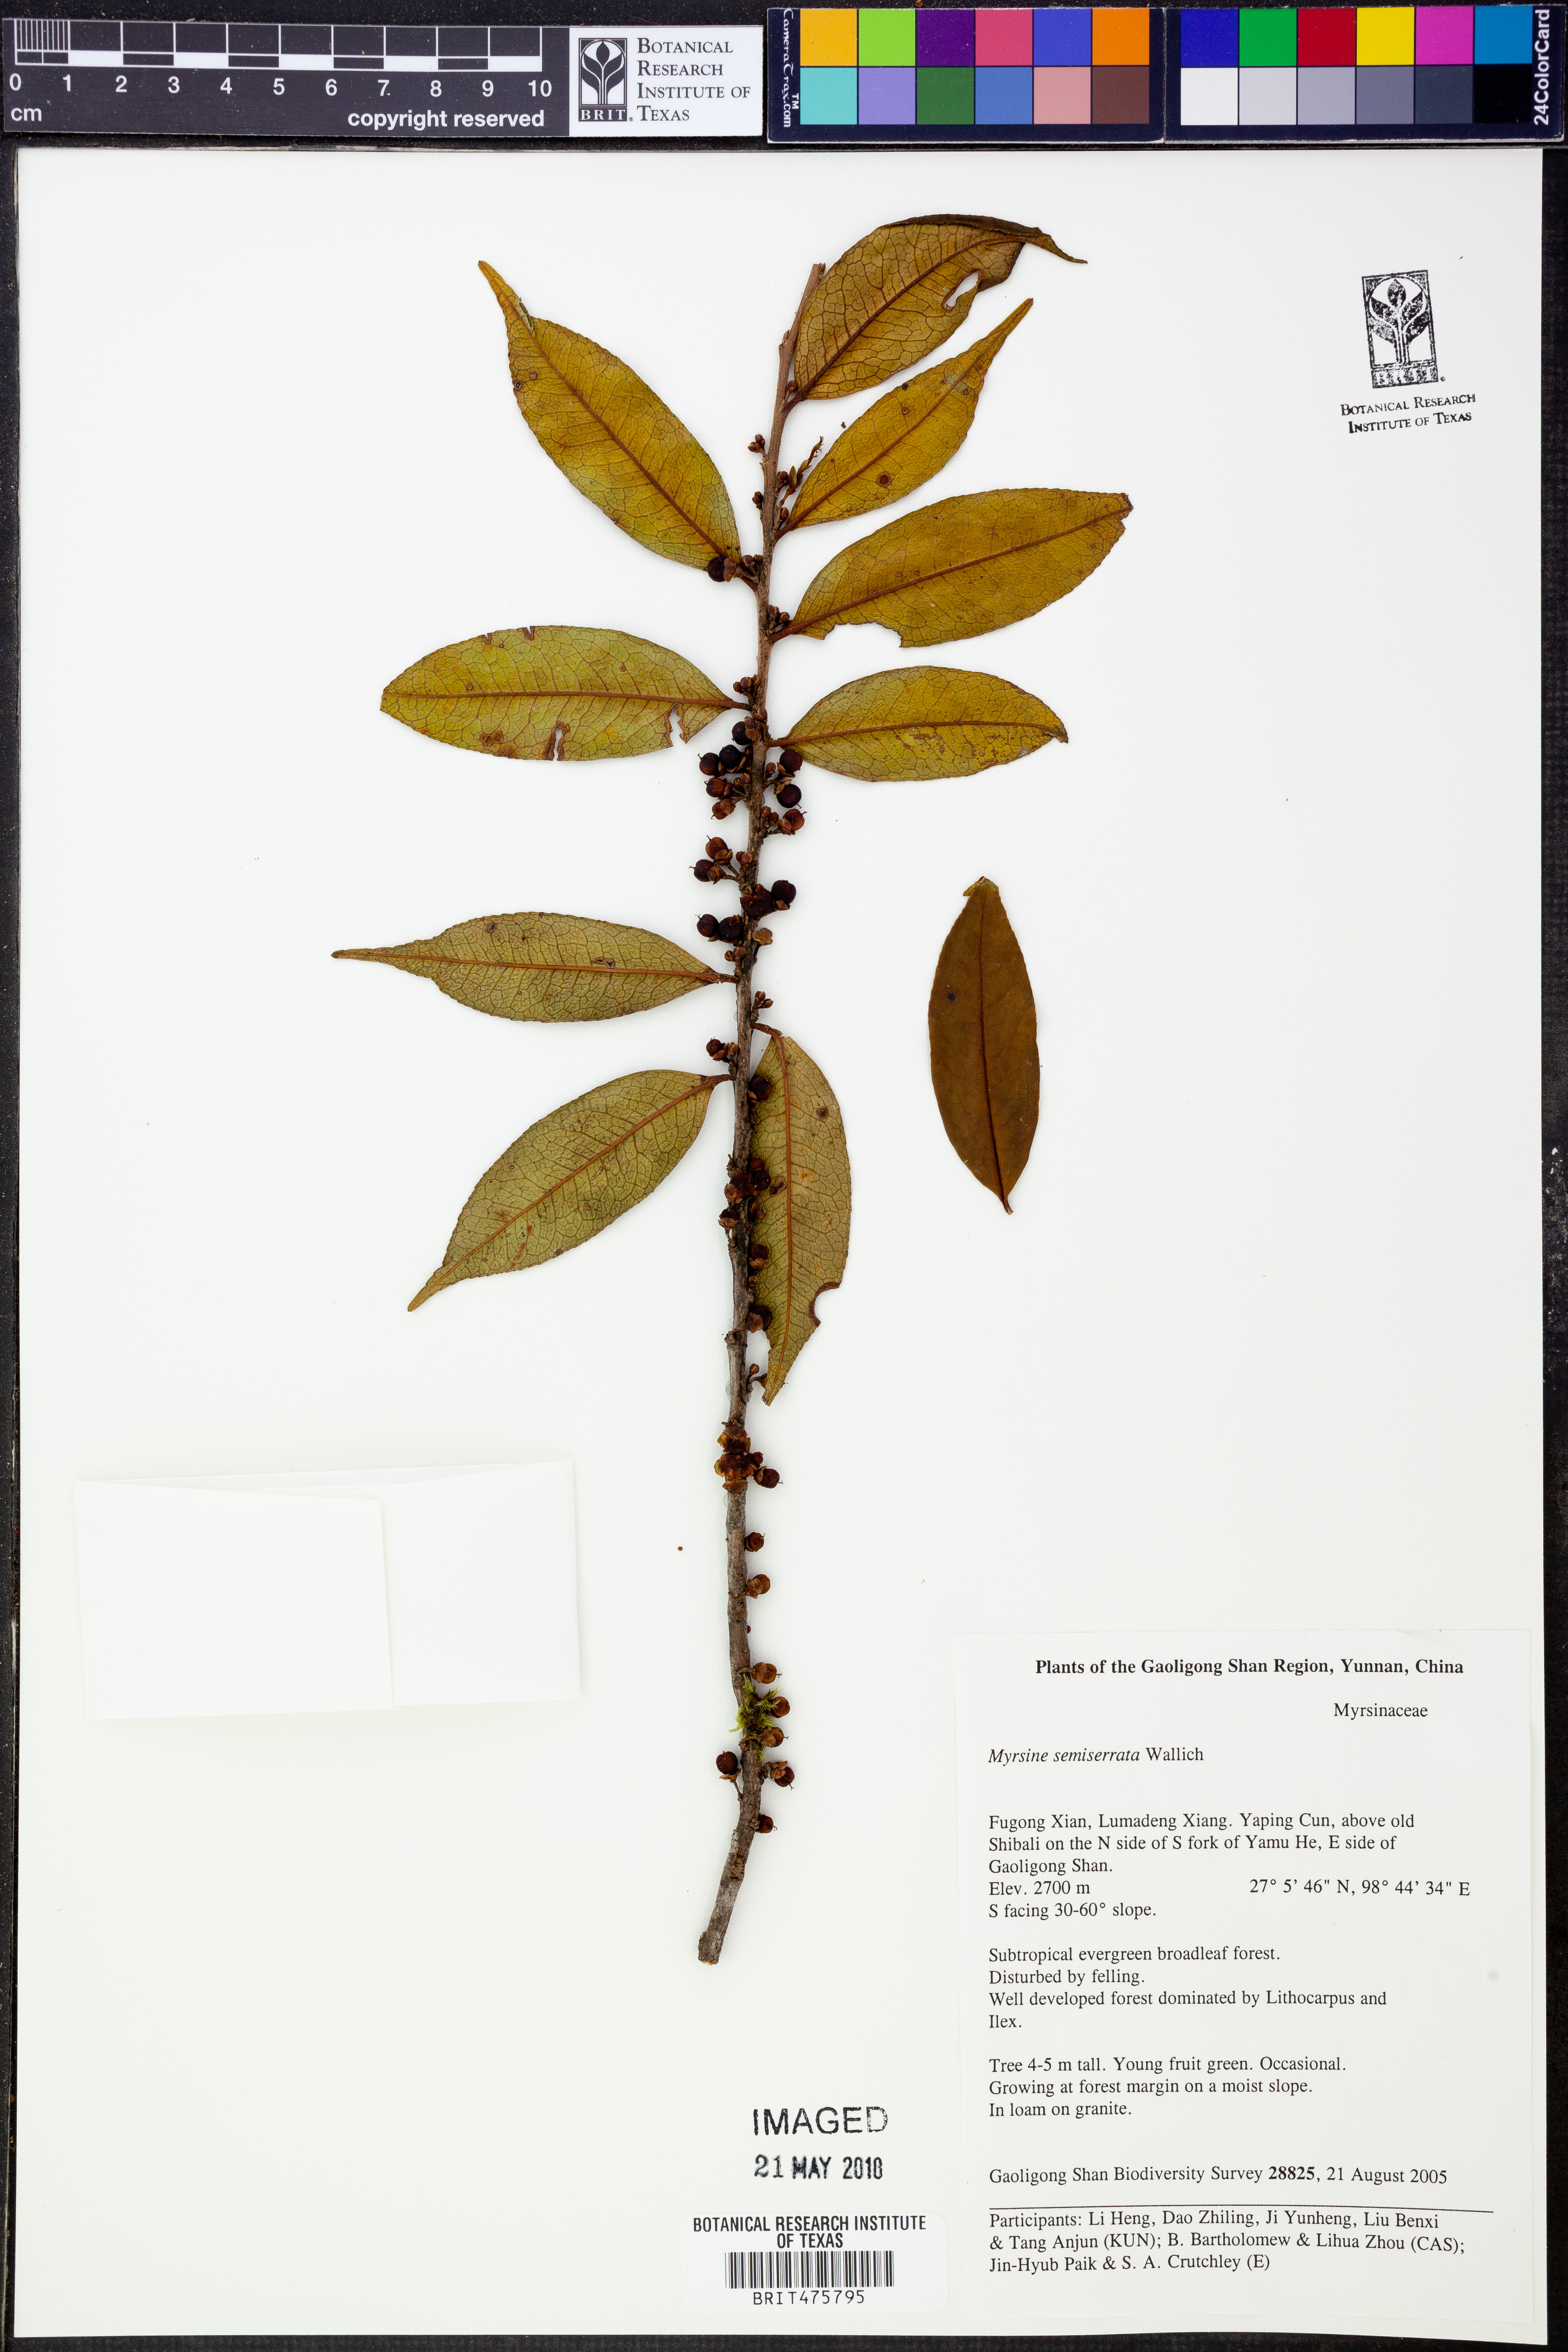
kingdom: Plantae
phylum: Tracheophyta
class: Magnoliopsida
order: Ericales
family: Pentaphylacaceae
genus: Eurya
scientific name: Eurya
